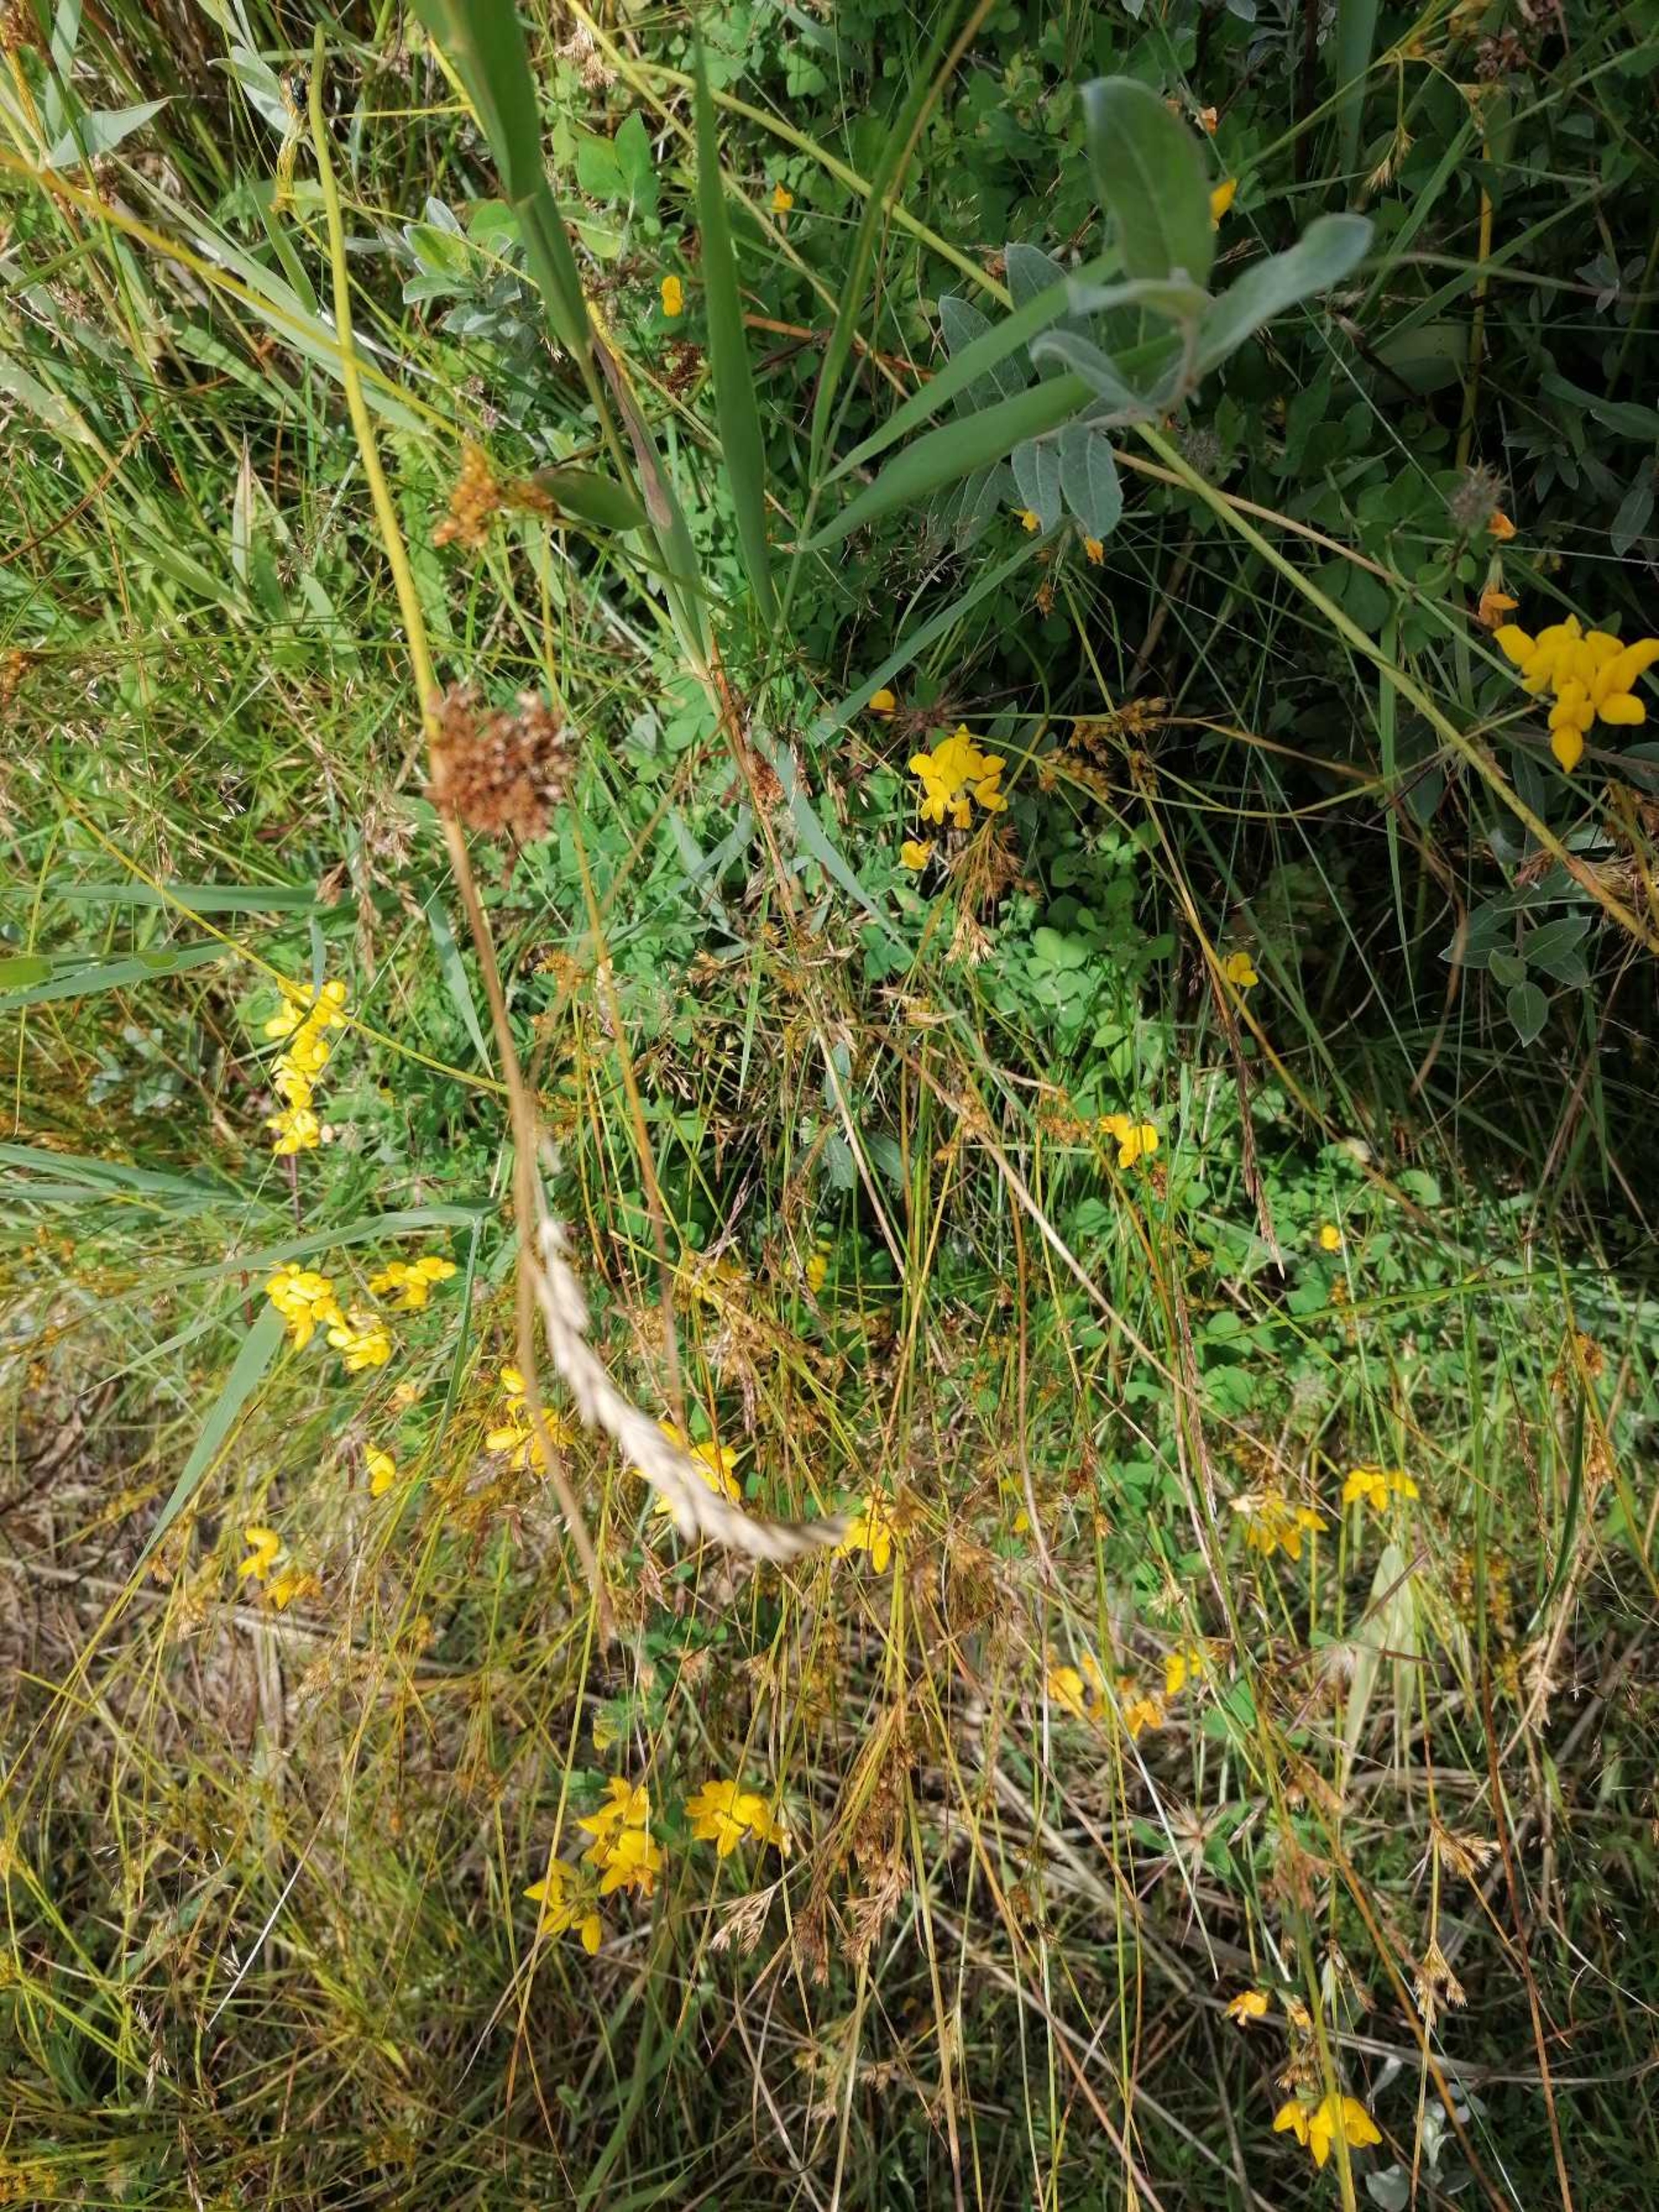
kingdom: Plantae
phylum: Tracheophyta
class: Magnoliopsida
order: Fabales
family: Fabaceae
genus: Lotus
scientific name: Lotus corniculatus
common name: Almindelig kællingetand
